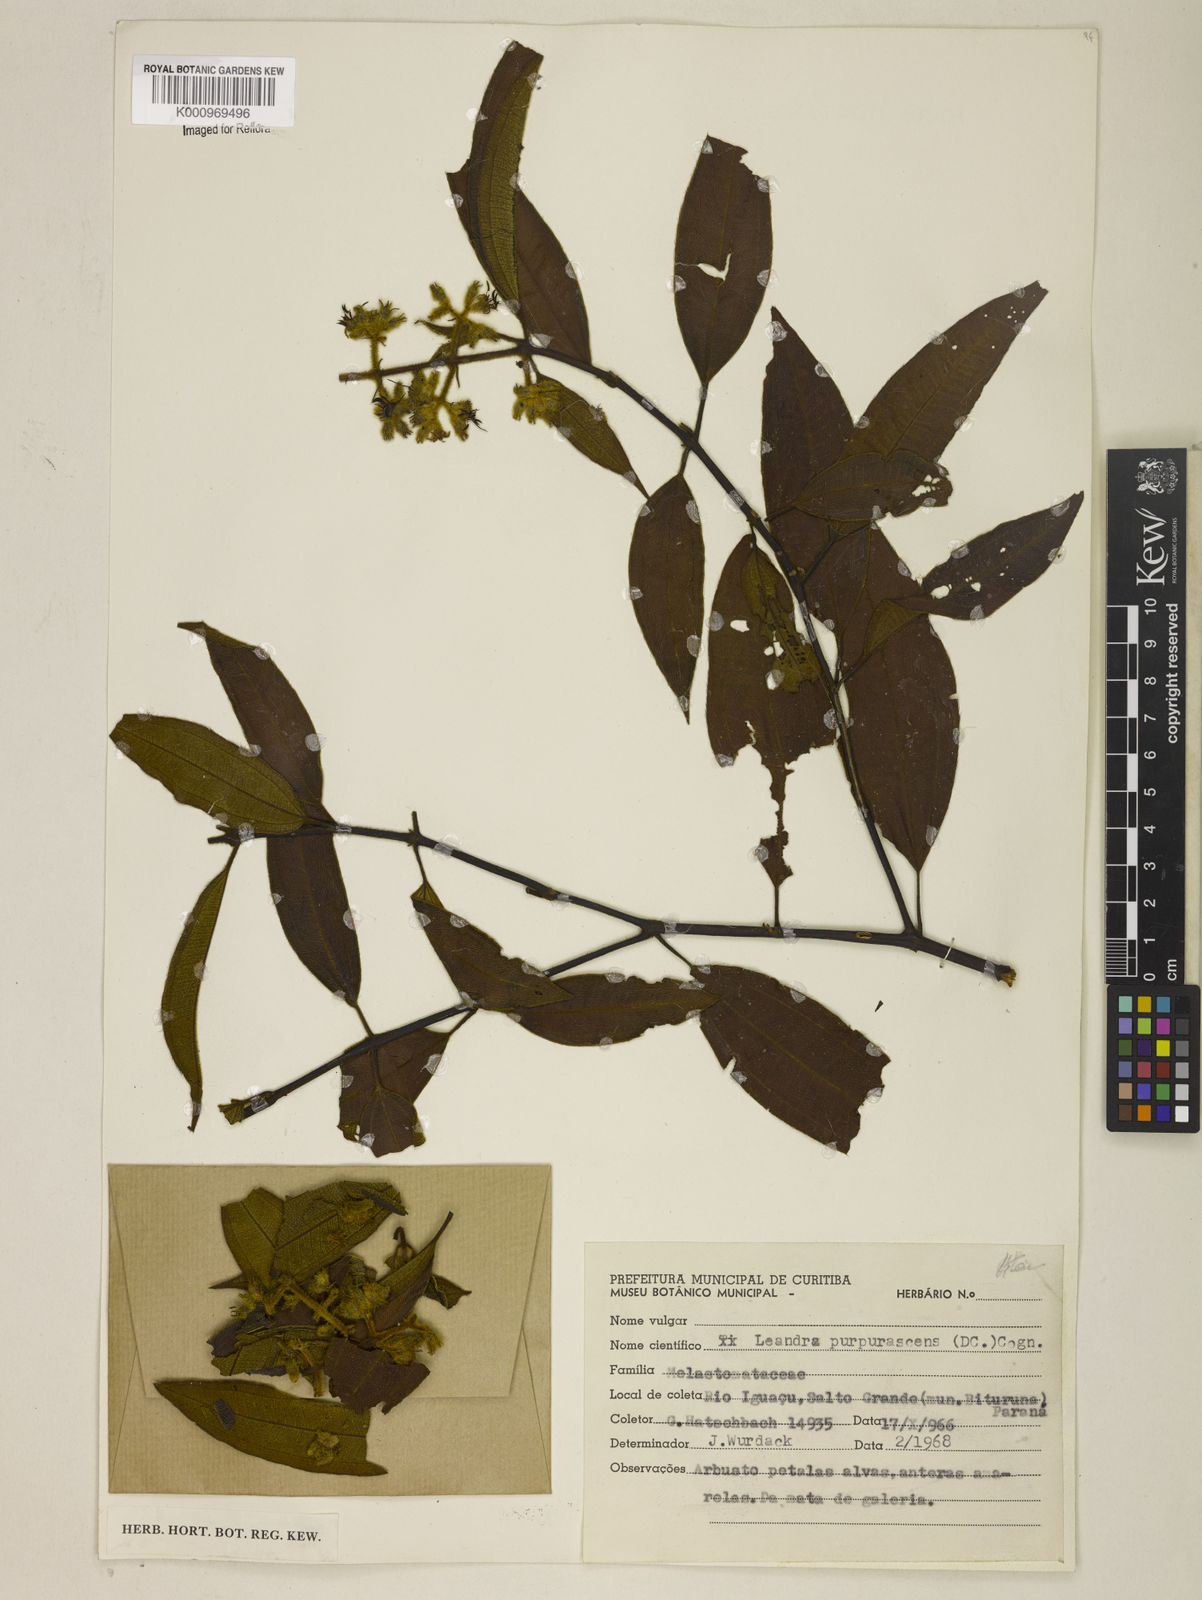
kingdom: Plantae
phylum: Tracheophyta
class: Magnoliopsida
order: Myrtales
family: Melastomataceae
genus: Miconia
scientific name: Miconia microstachya
